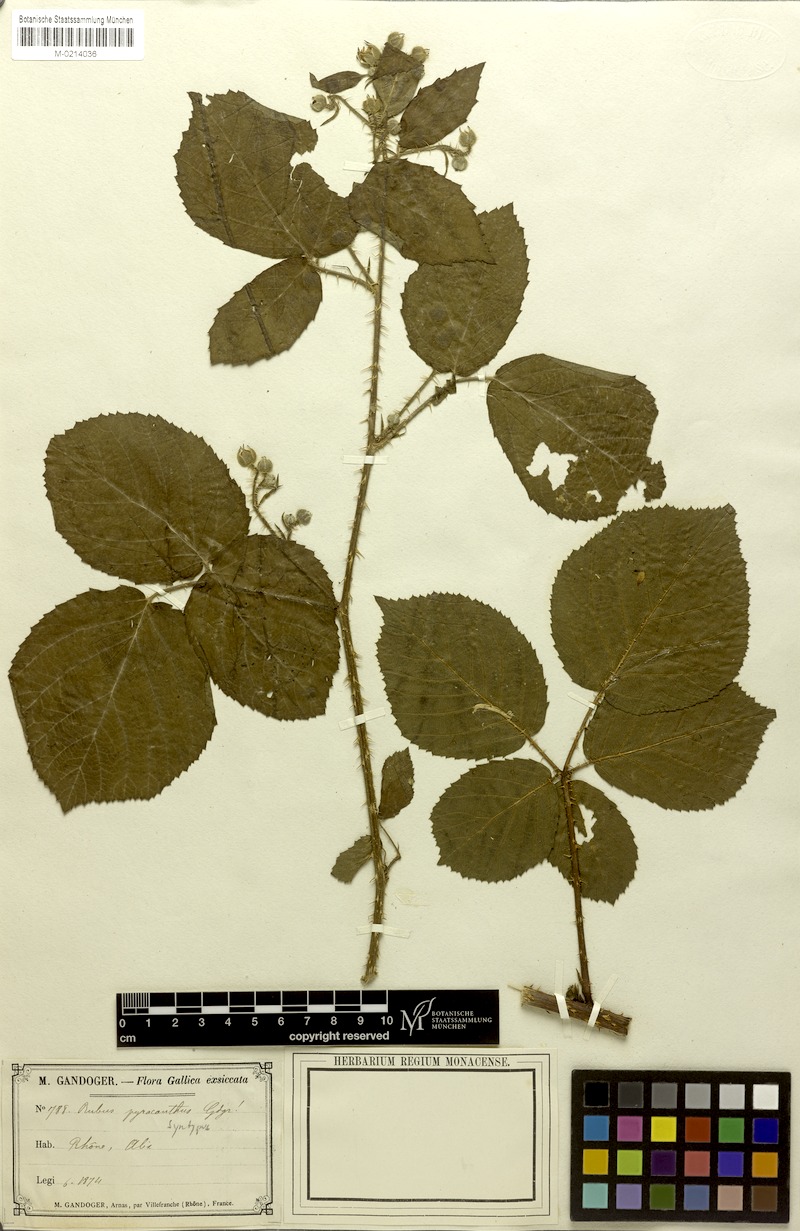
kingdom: Plantae
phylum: Tracheophyta
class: Magnoliopsida
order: Rosales
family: Rosaceae
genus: Rubus
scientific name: Rubus
